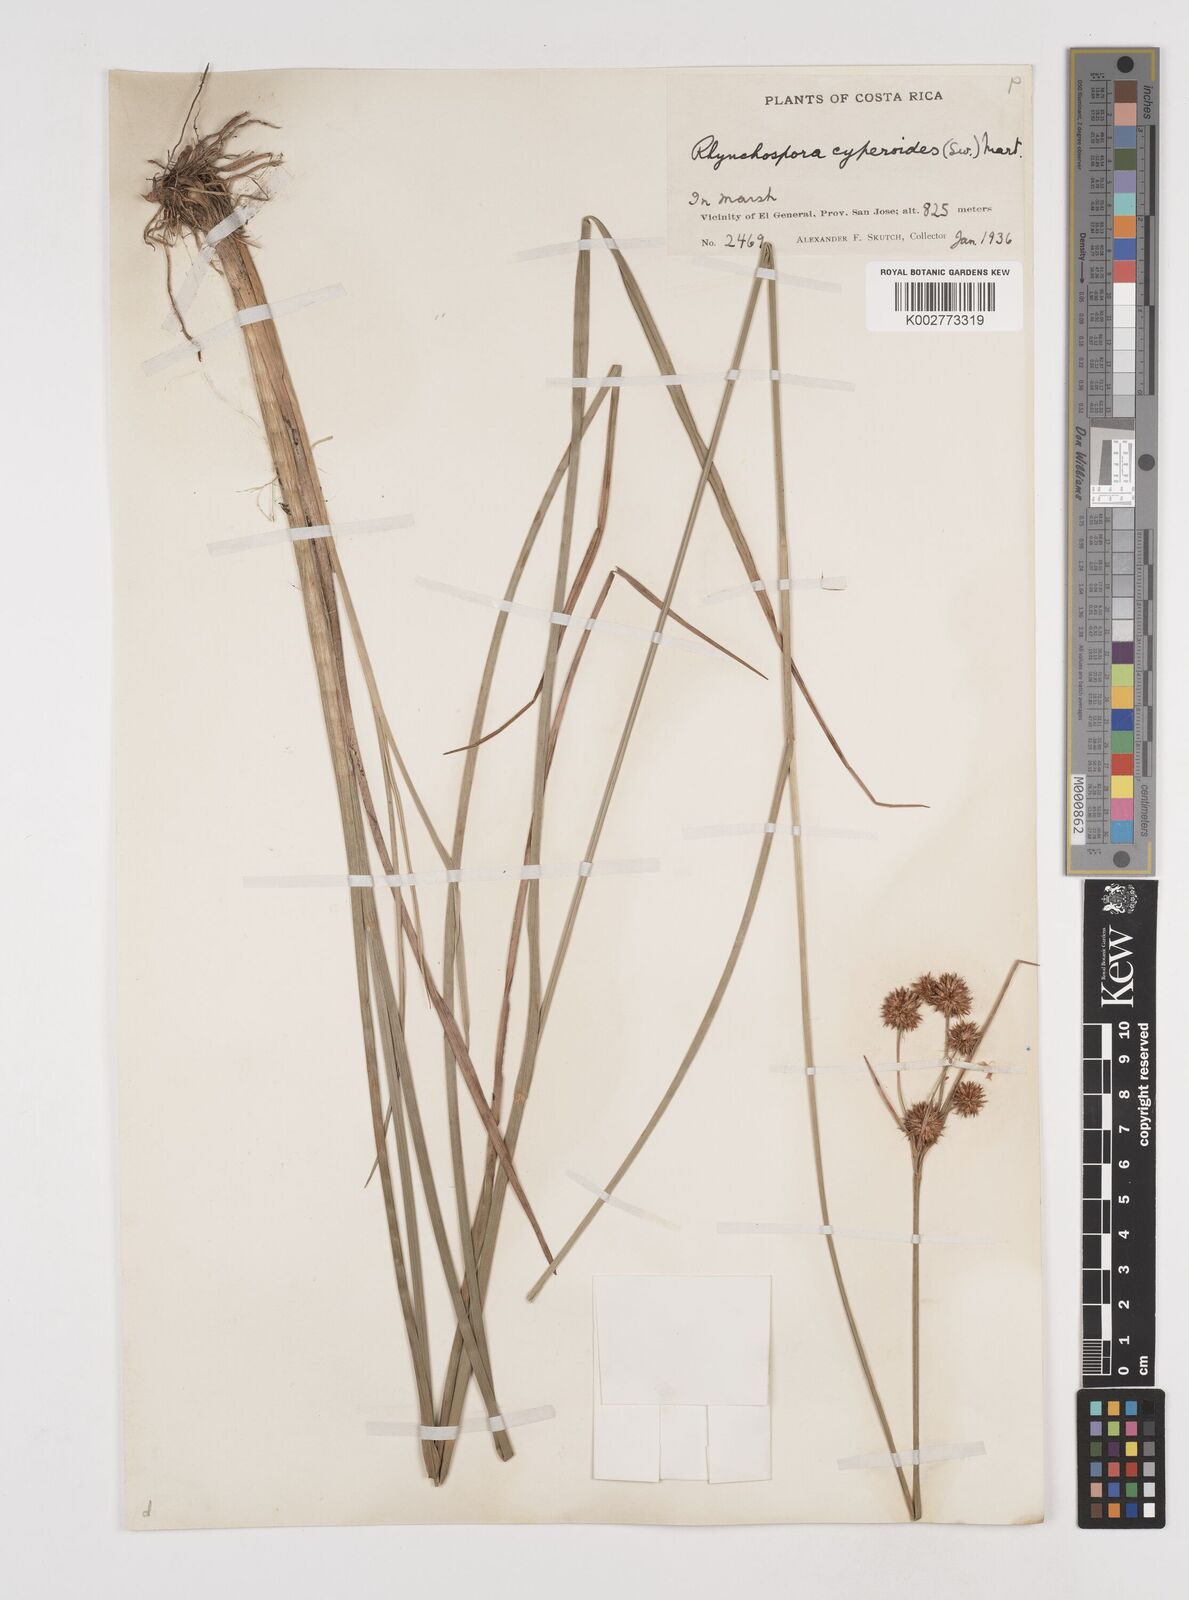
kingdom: Plantae
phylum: Tracheophyta
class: Liliopsida
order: Poales
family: Cyperaceae
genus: Rhynchospora
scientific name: Rhynchospora holoschoenoides
